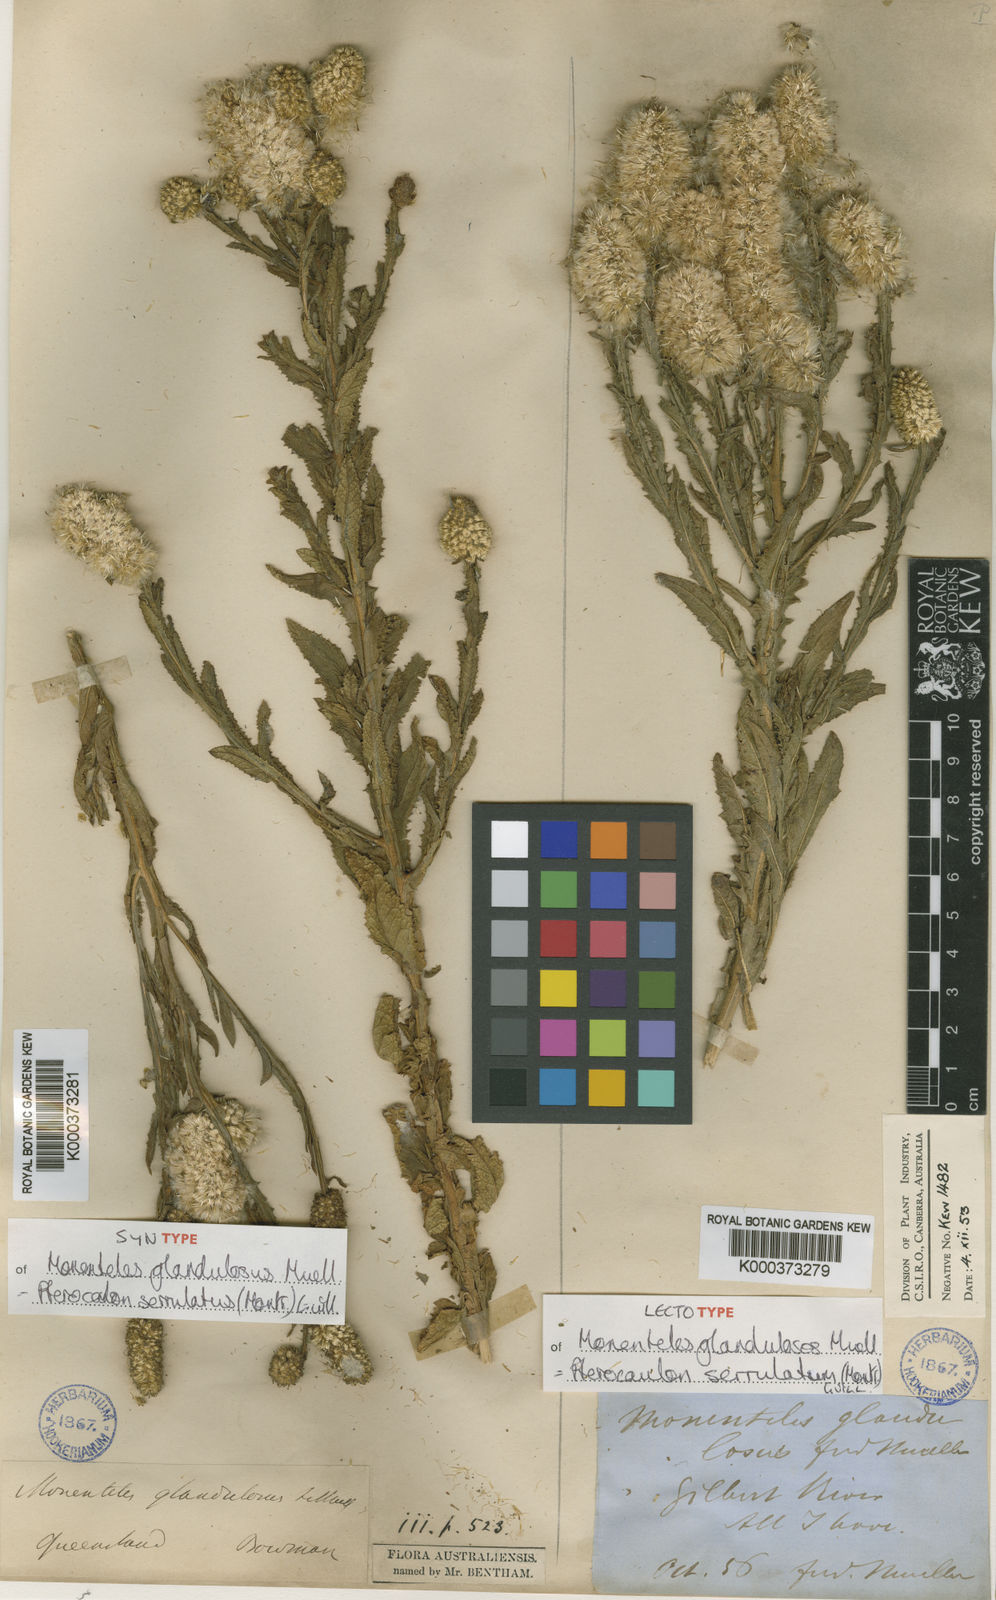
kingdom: Plantae
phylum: Tracheophyta
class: Magnoliopsida
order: Asterales
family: Asteraceae
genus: Pterocaulon
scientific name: Pterocaulon serrulatum
